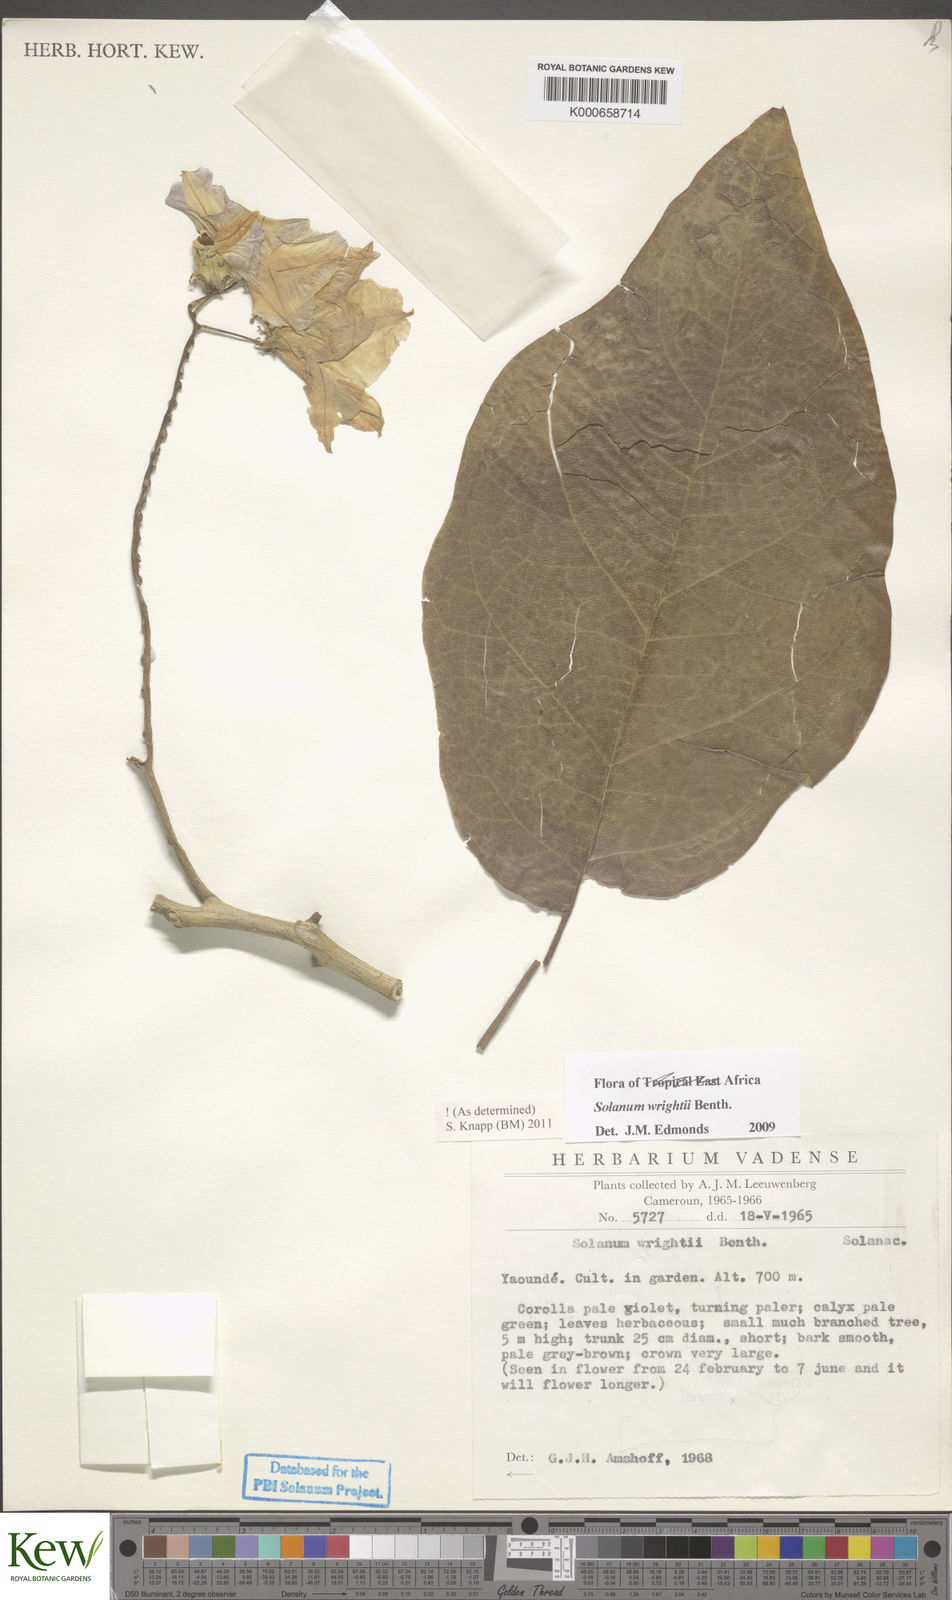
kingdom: Plantae
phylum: Tracheophyta
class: Magnoliopsida
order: Solanales
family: Solanaceae
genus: Solanum
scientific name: Solanum wrightii
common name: Brazilian potato-tree
